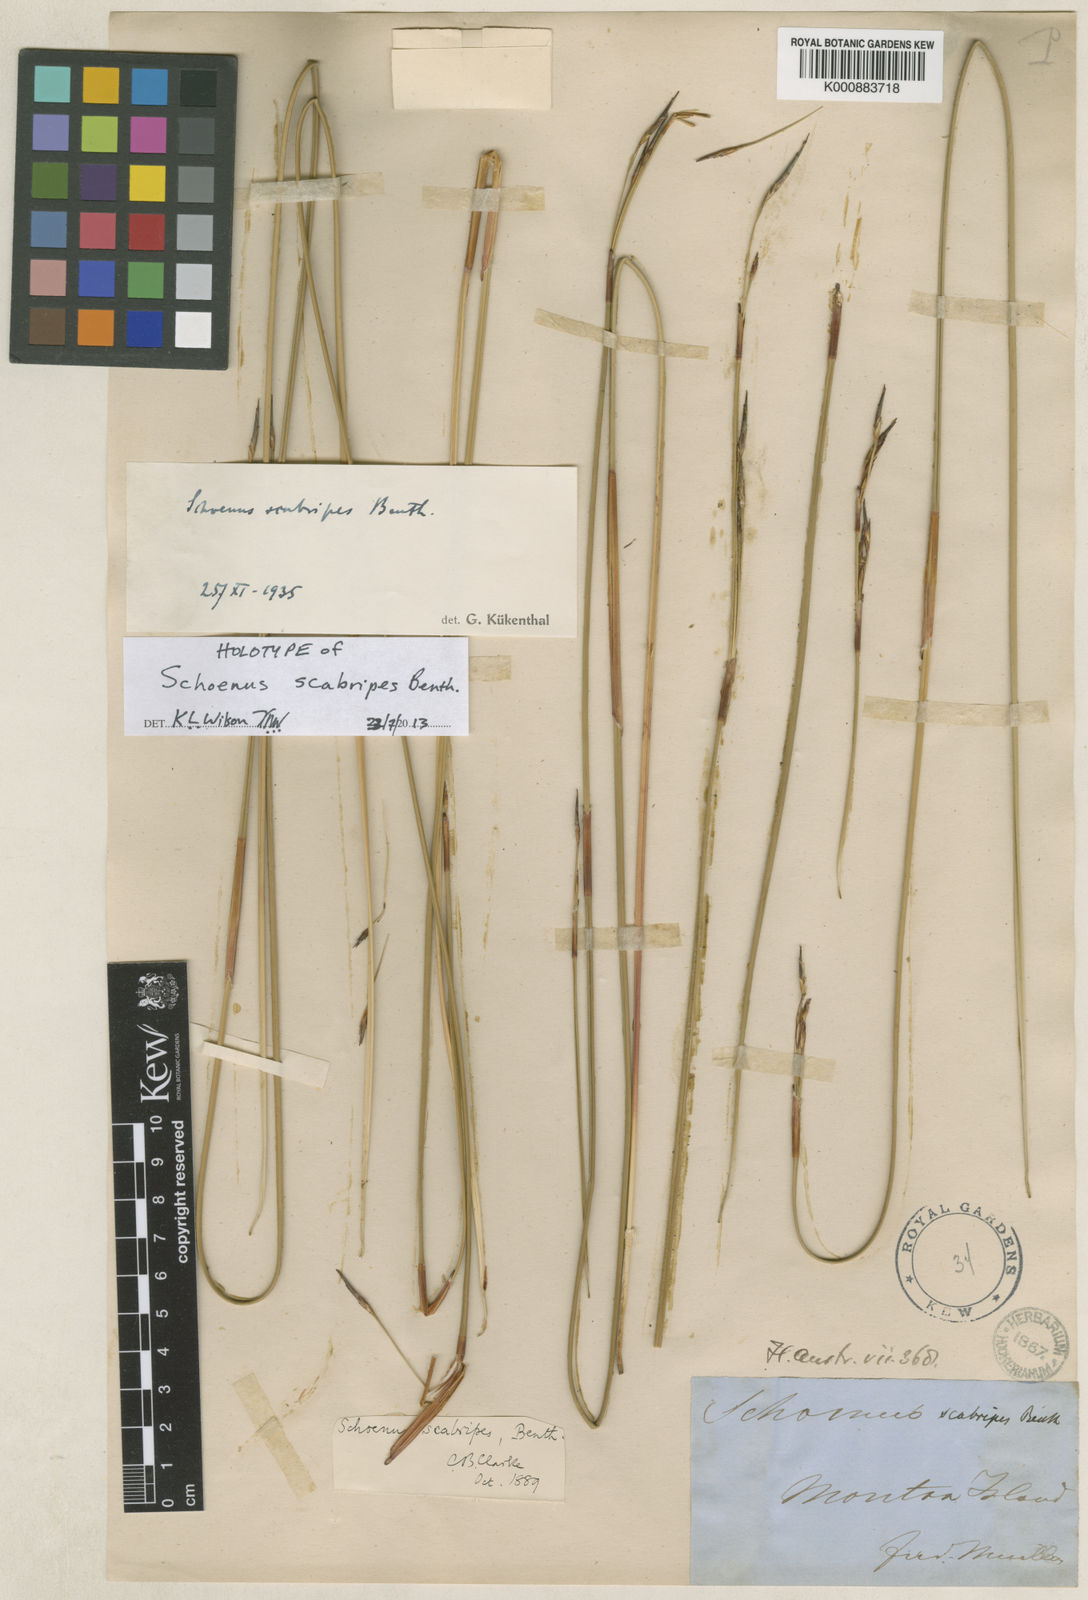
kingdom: Plantae
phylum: Tracheophyta
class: Liliopsida
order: Poales
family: Cyperaceae
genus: Schoenus
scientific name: Schoenus scabripes
